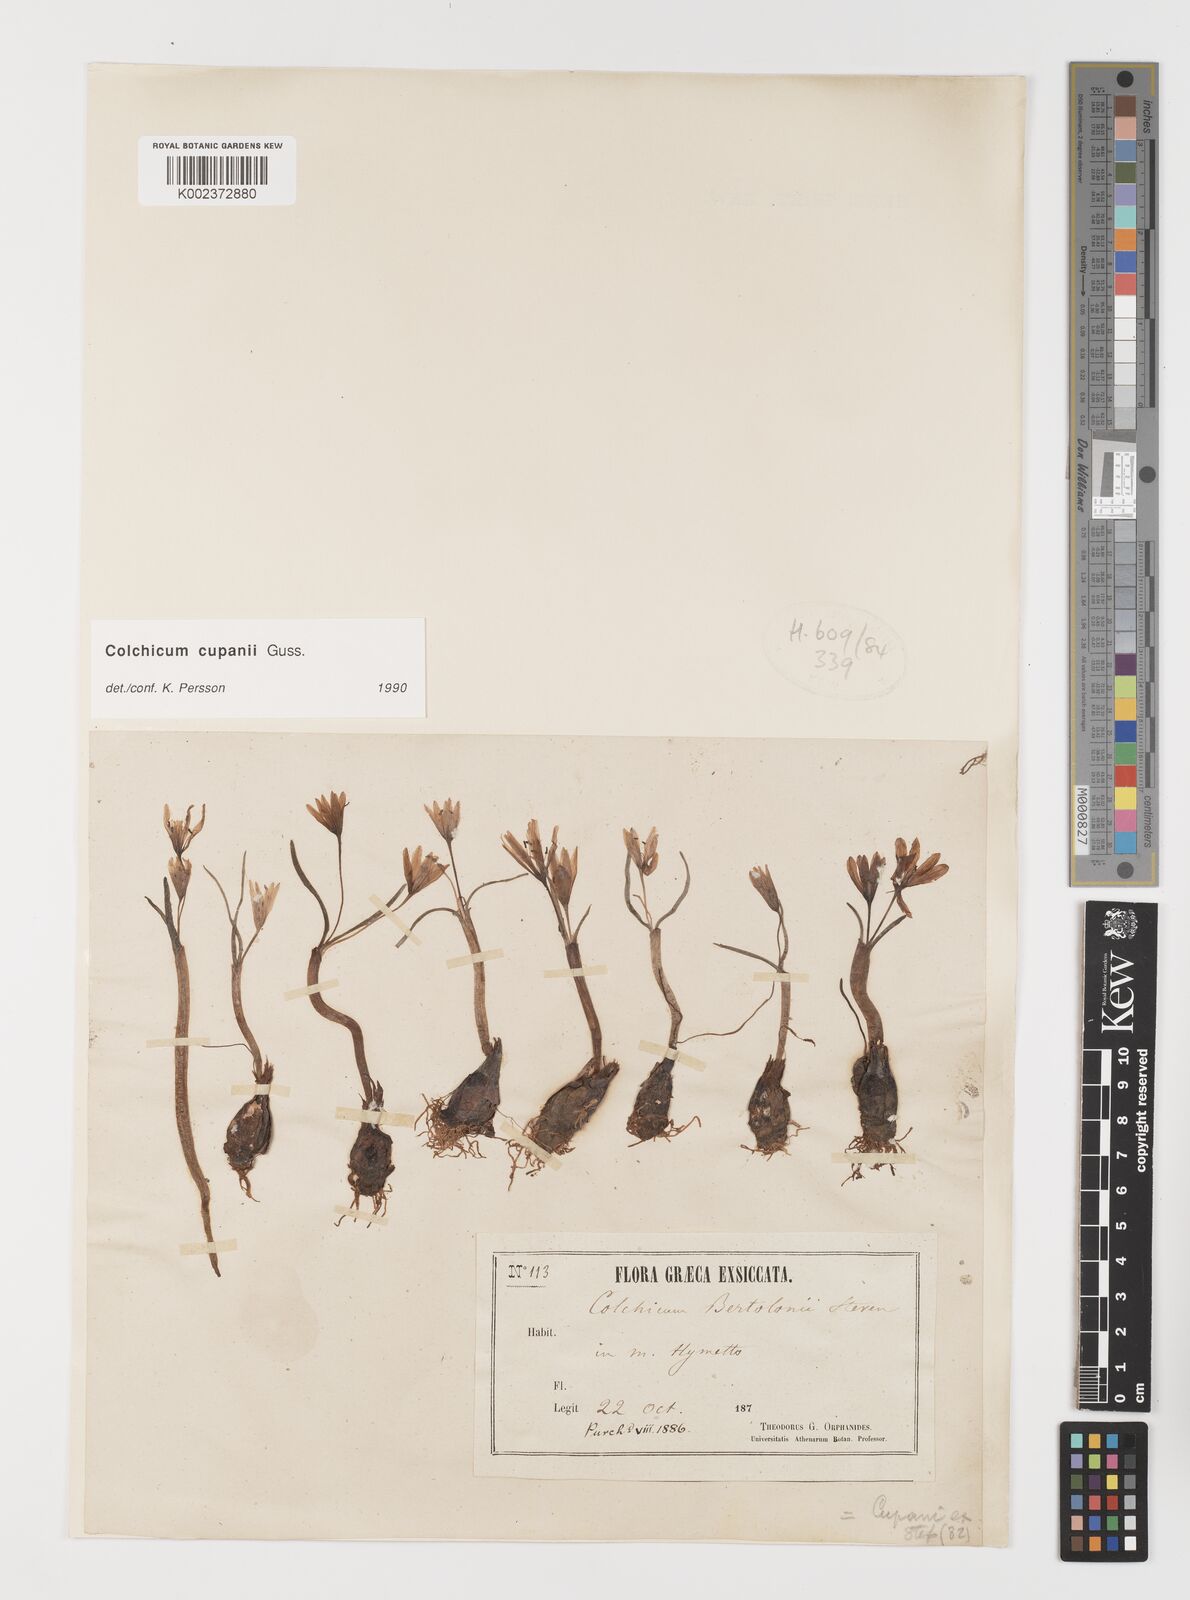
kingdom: Plantae
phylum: Tracheophyta
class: Liliopsida
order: Liliales
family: Colchicaceae
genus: Colchicum
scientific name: Colchicum cupanii
